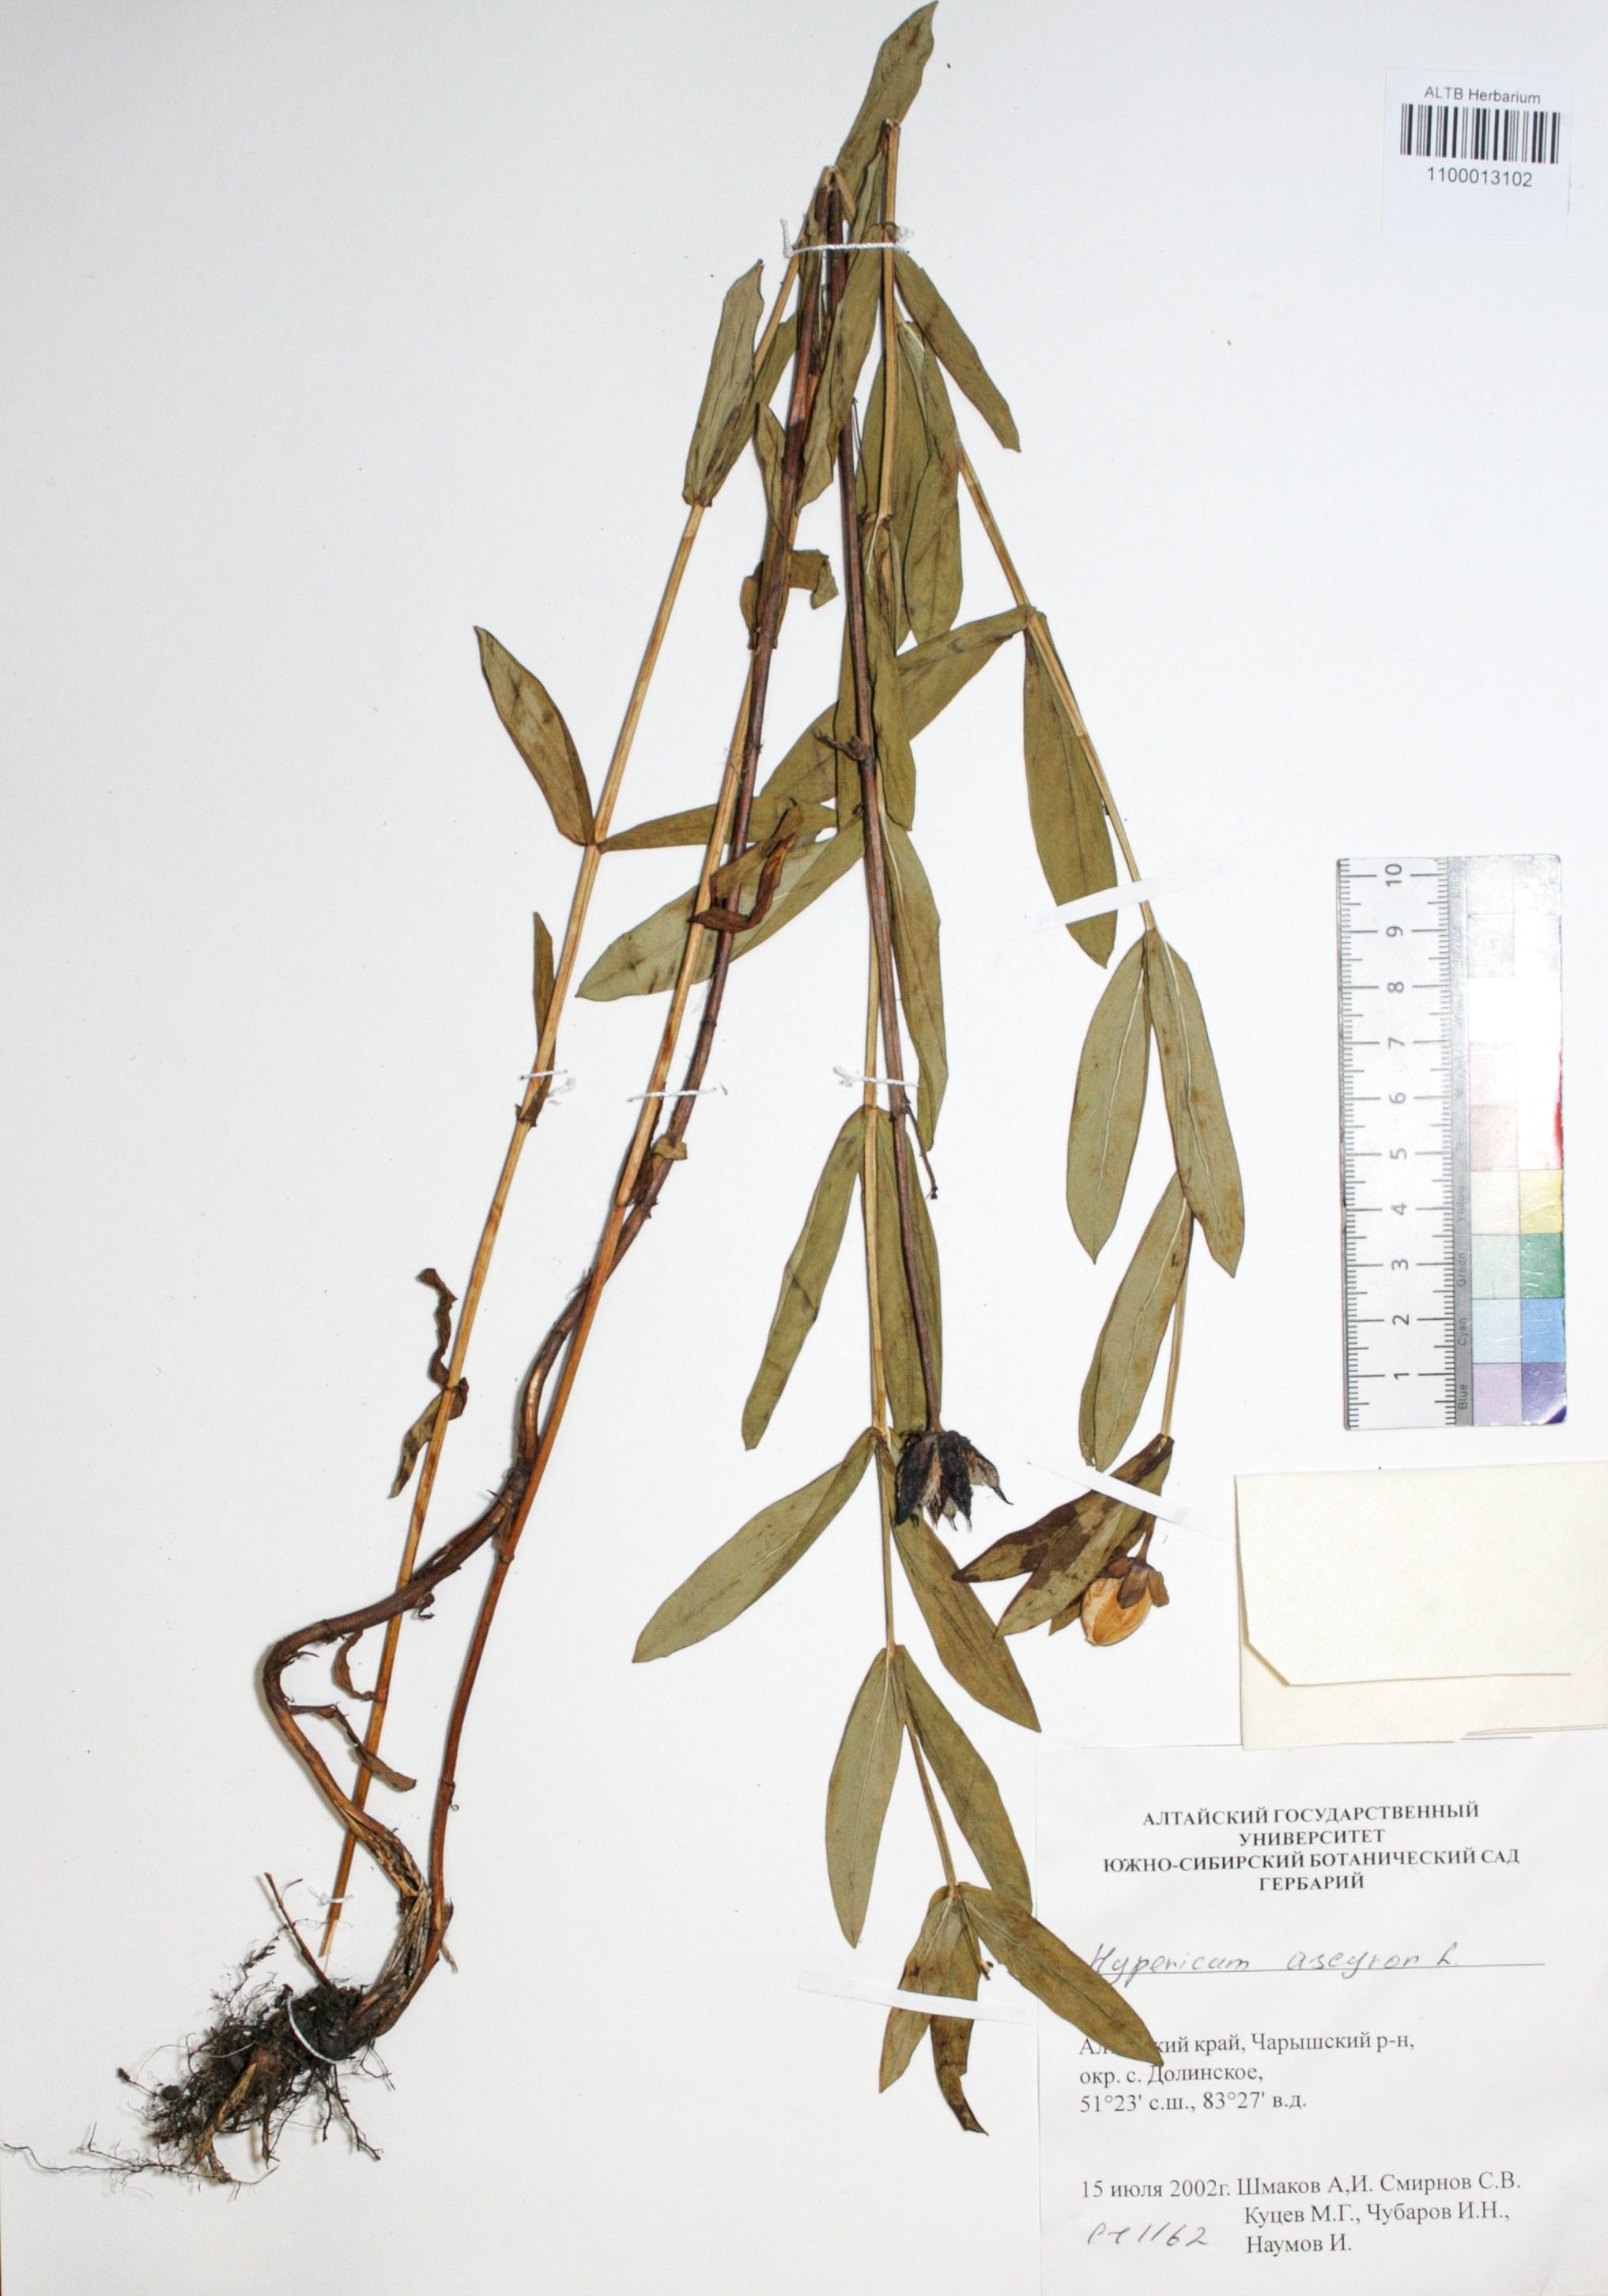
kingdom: Plantae
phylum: Tracheophyta
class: Magnoliopsida
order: Malpighiales
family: Hypericaceae
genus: Hypericum
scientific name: Hypericum ascyron
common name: Giant st. john's-wort
